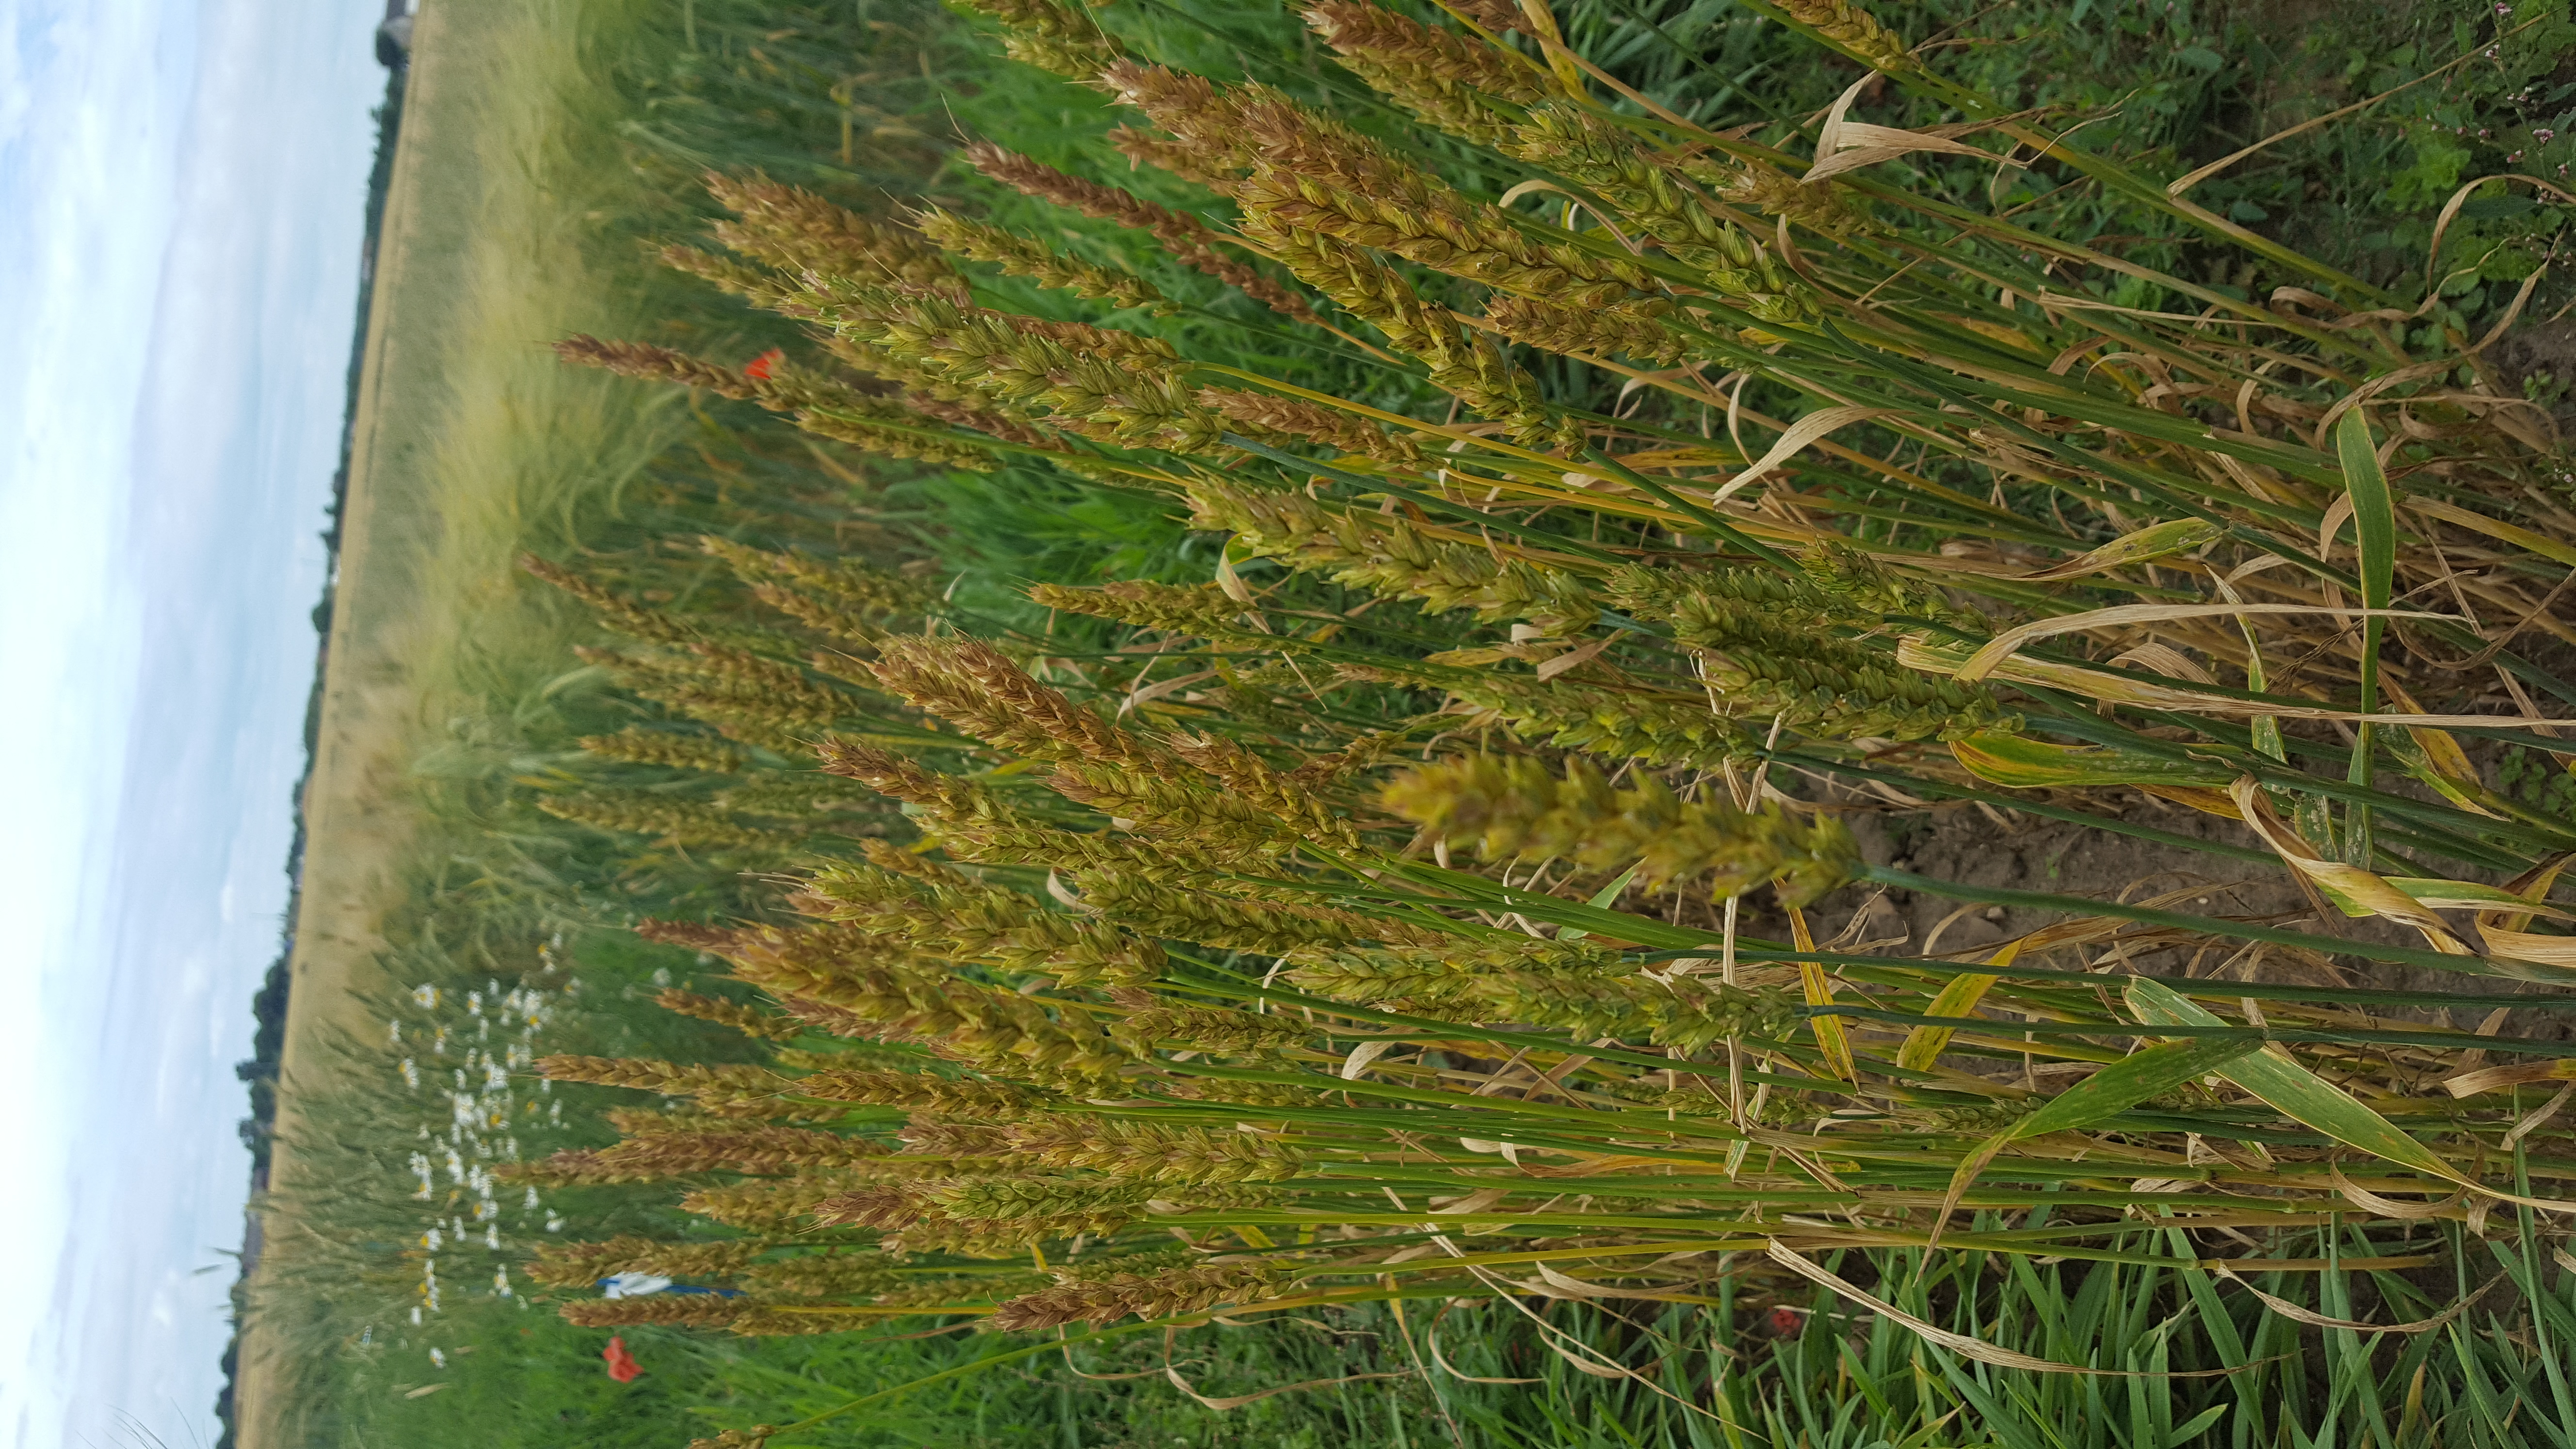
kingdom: Plantae
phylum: Tracheophyta
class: Liliopsida
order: Poales
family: Poaceae
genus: Triticum
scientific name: Triticum aestivum
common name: Common wheat
